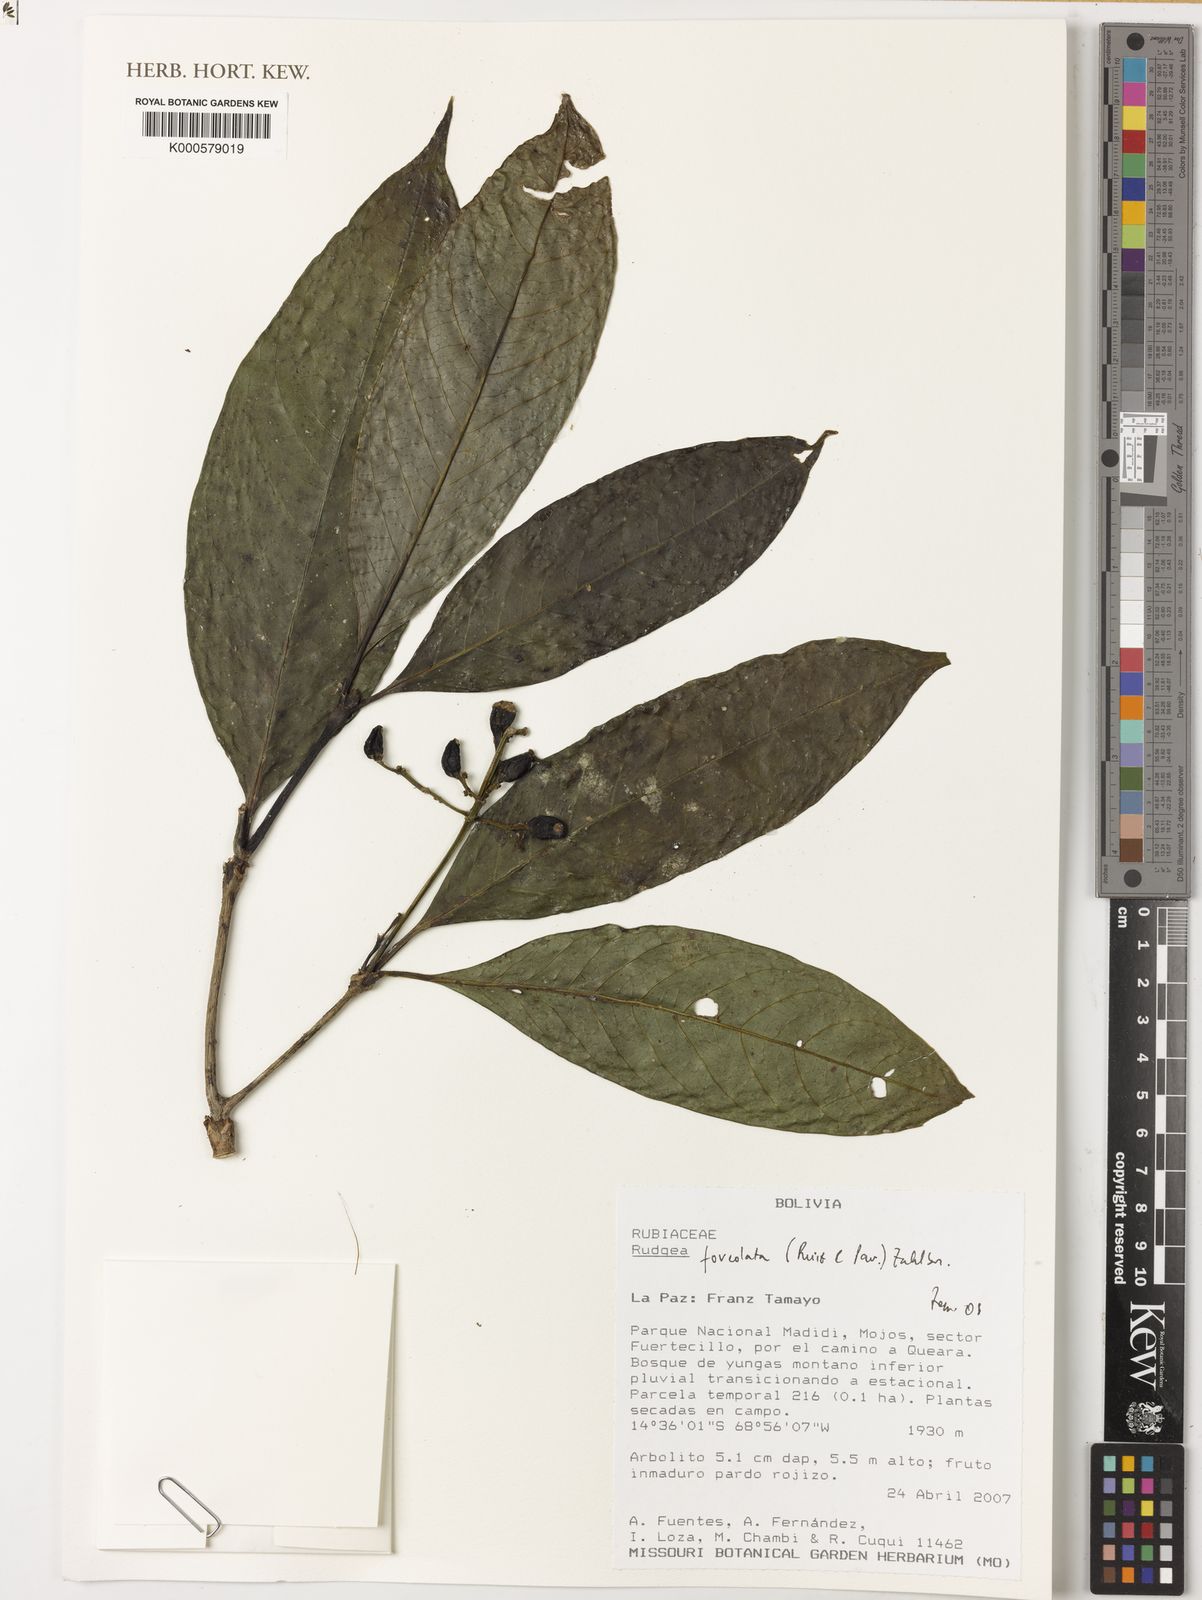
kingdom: Plantae
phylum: Tracheophyta
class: Magnoliopsida
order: Gentianales
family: Rubiaceae
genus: Rudgea
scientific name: Rudgea foveolata
